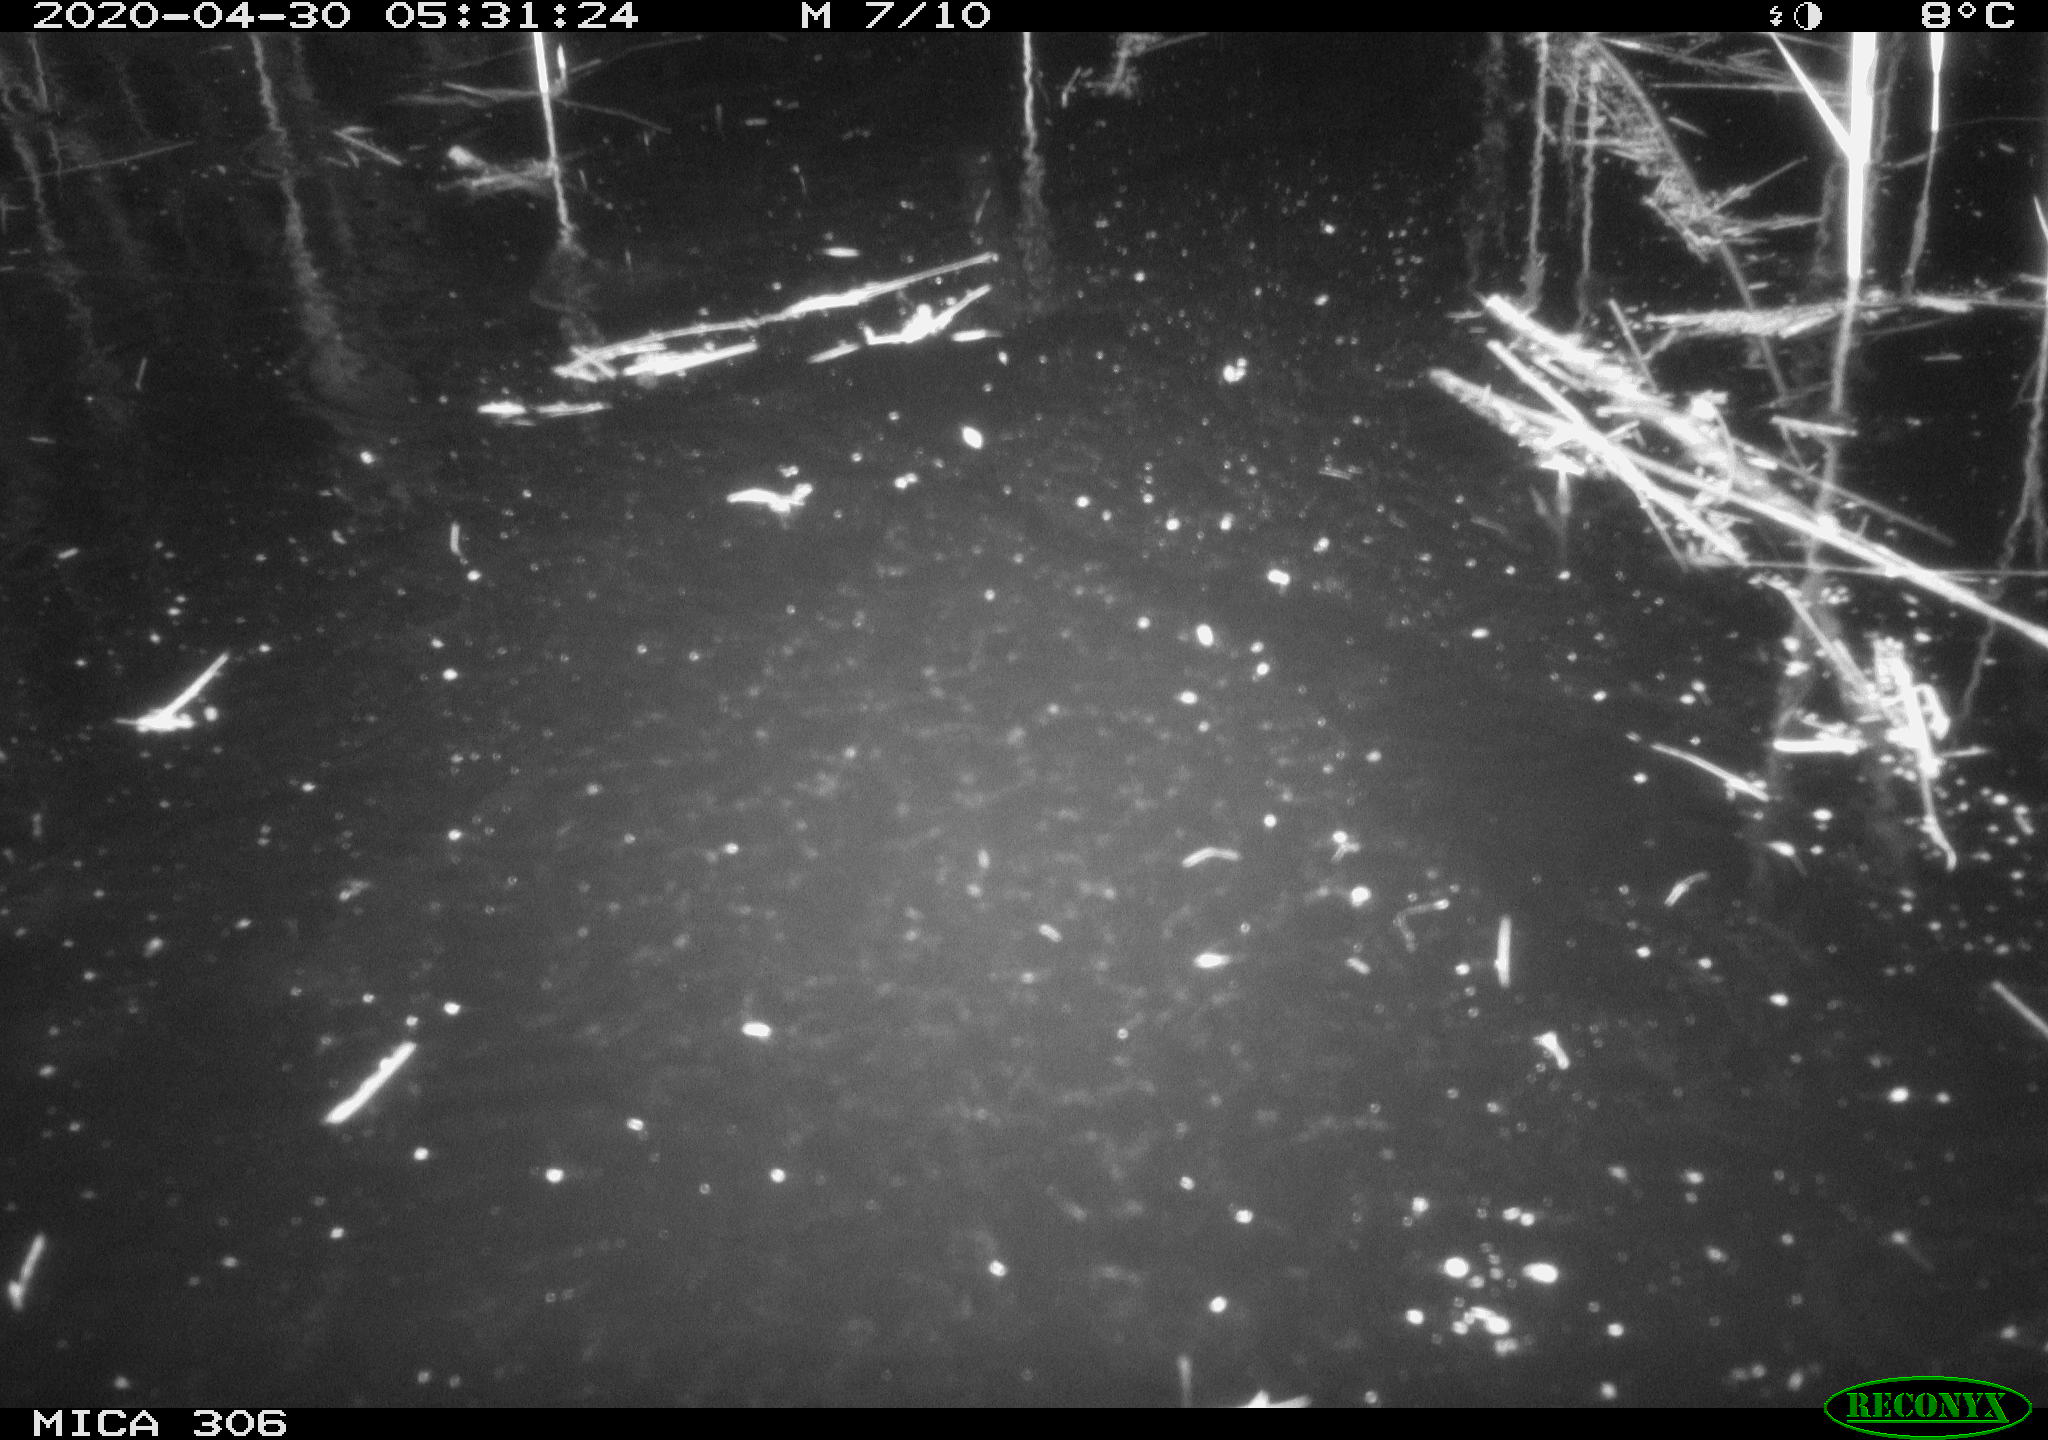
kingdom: Animalia
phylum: Chordata
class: Mammalia
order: Rodentia
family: Cricetidae
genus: Ondatra
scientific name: Ondatra zibethicus
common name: Muskrat
